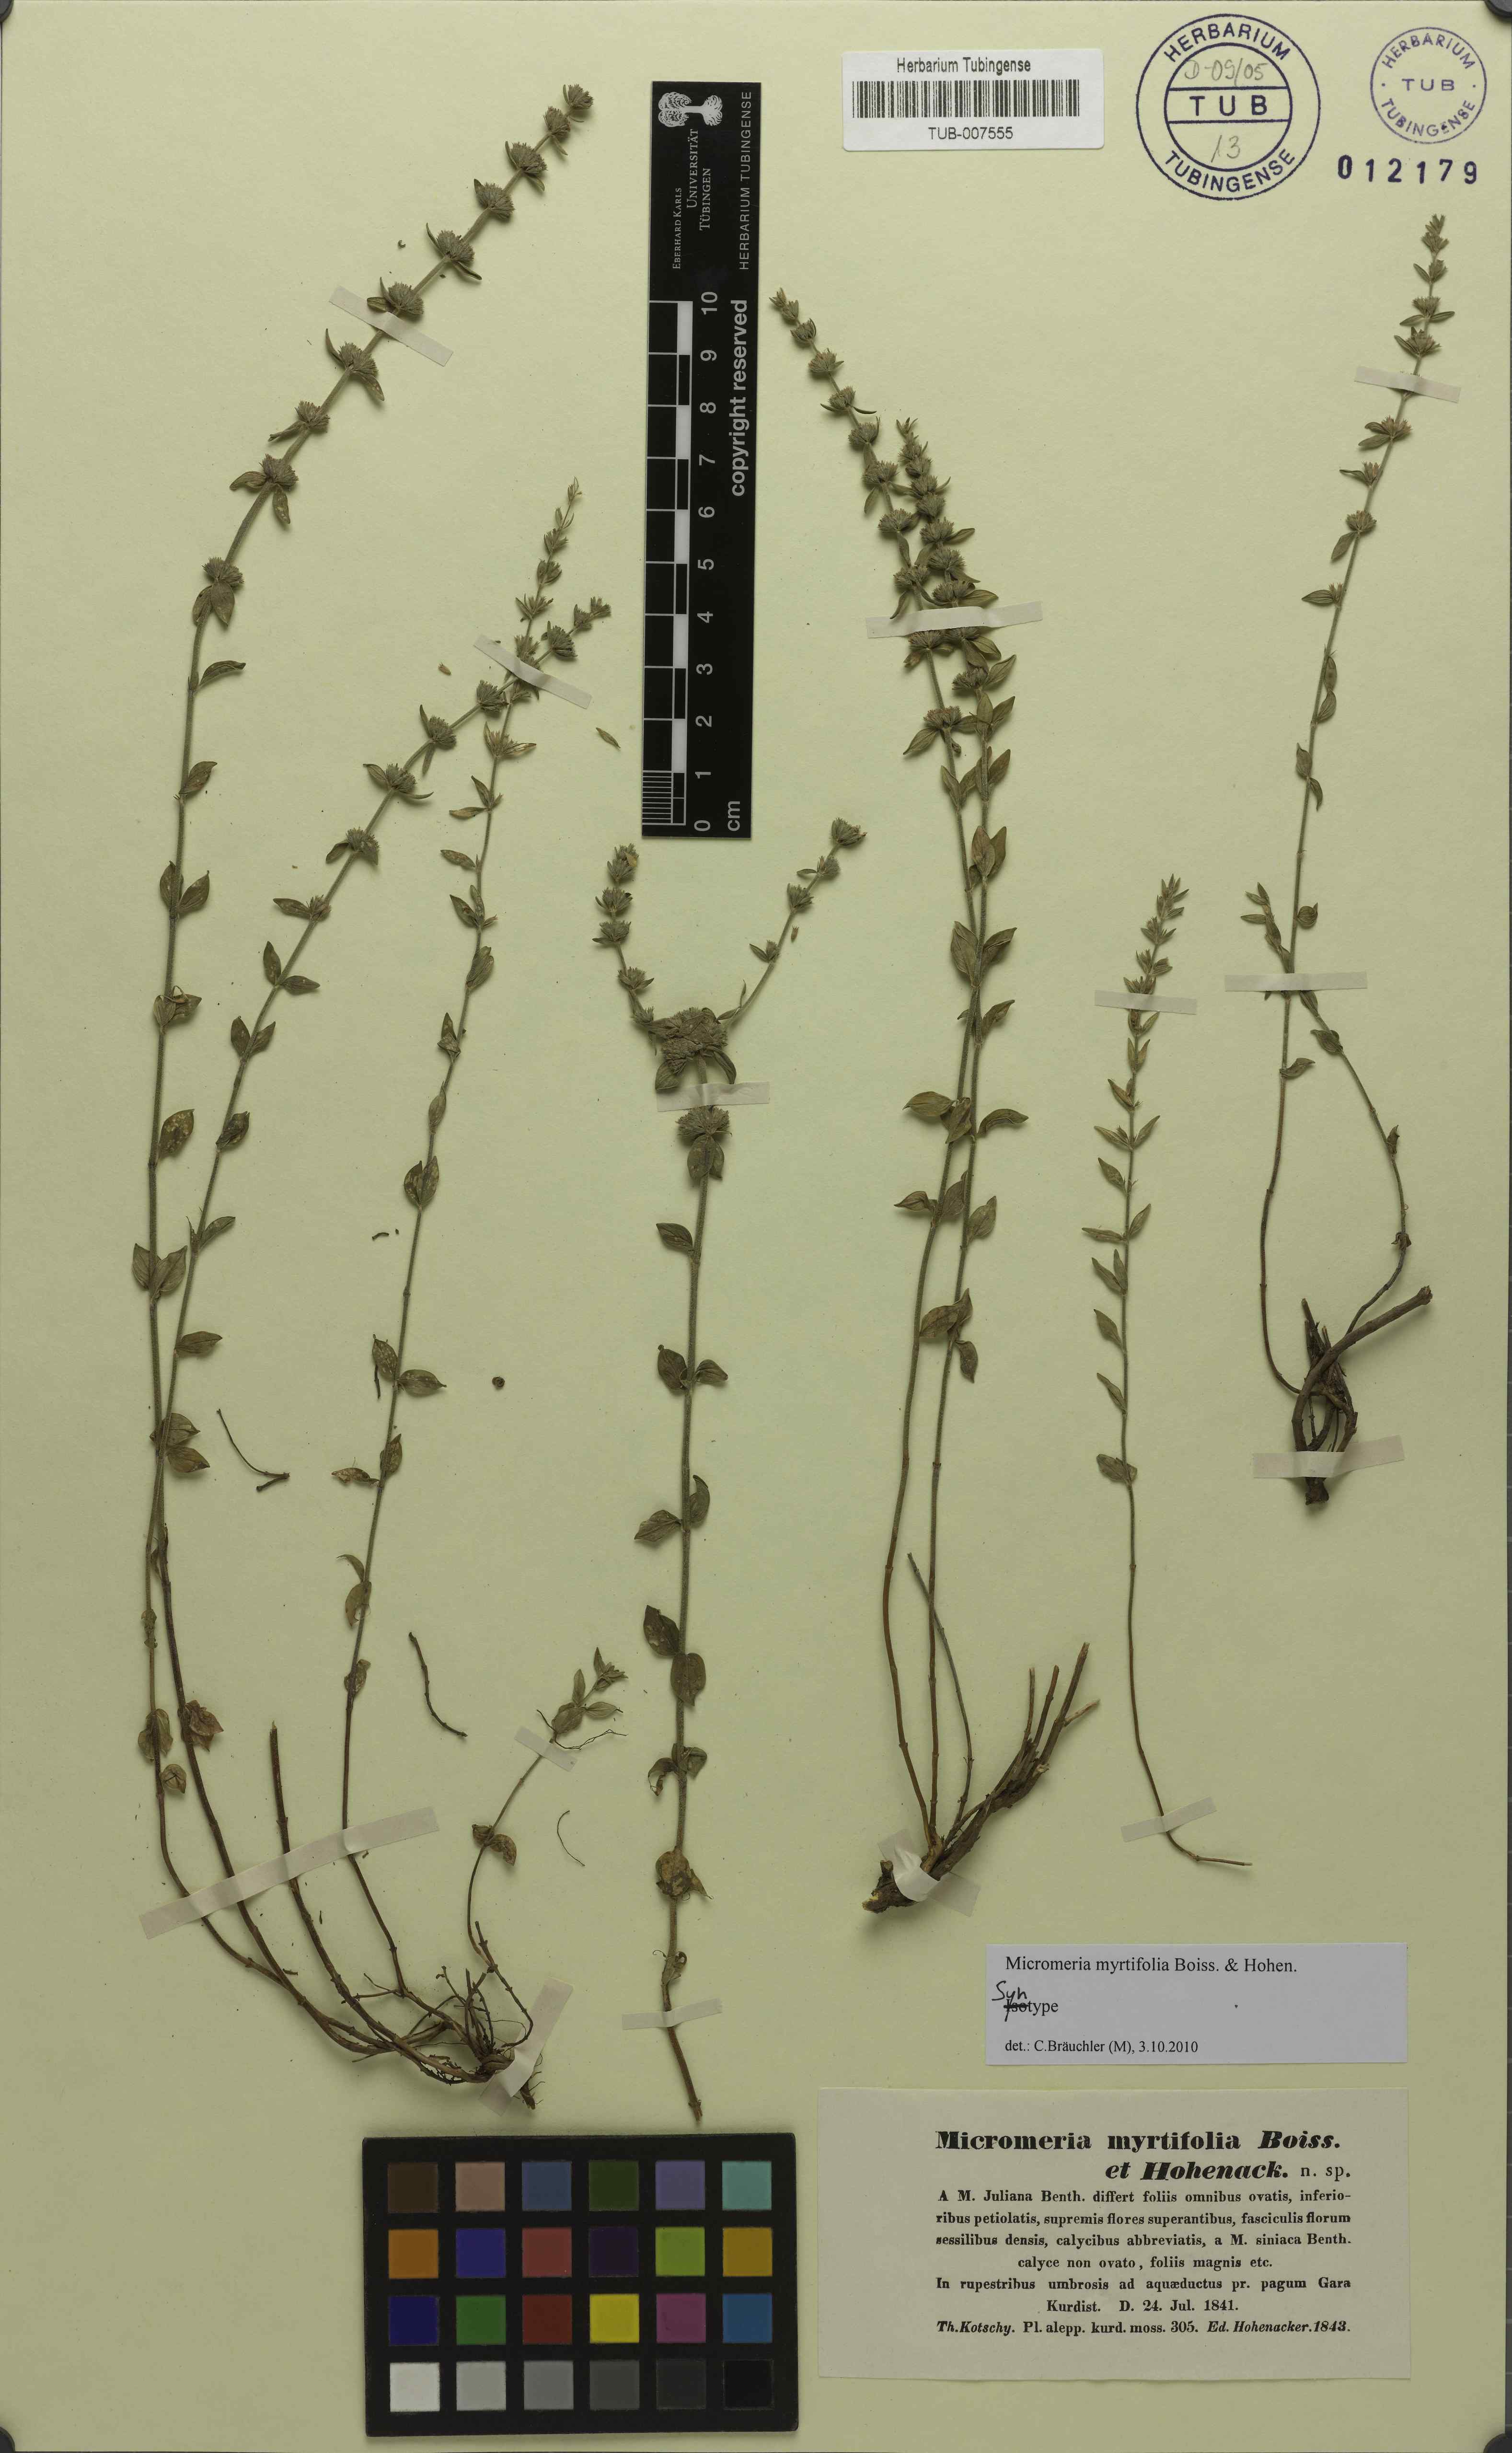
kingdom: Plantae
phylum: Tracheophyta
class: Magnoliopsida
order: Lamiales
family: Lamiaceae
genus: Micromeria
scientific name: Micromeria myrtifolia
